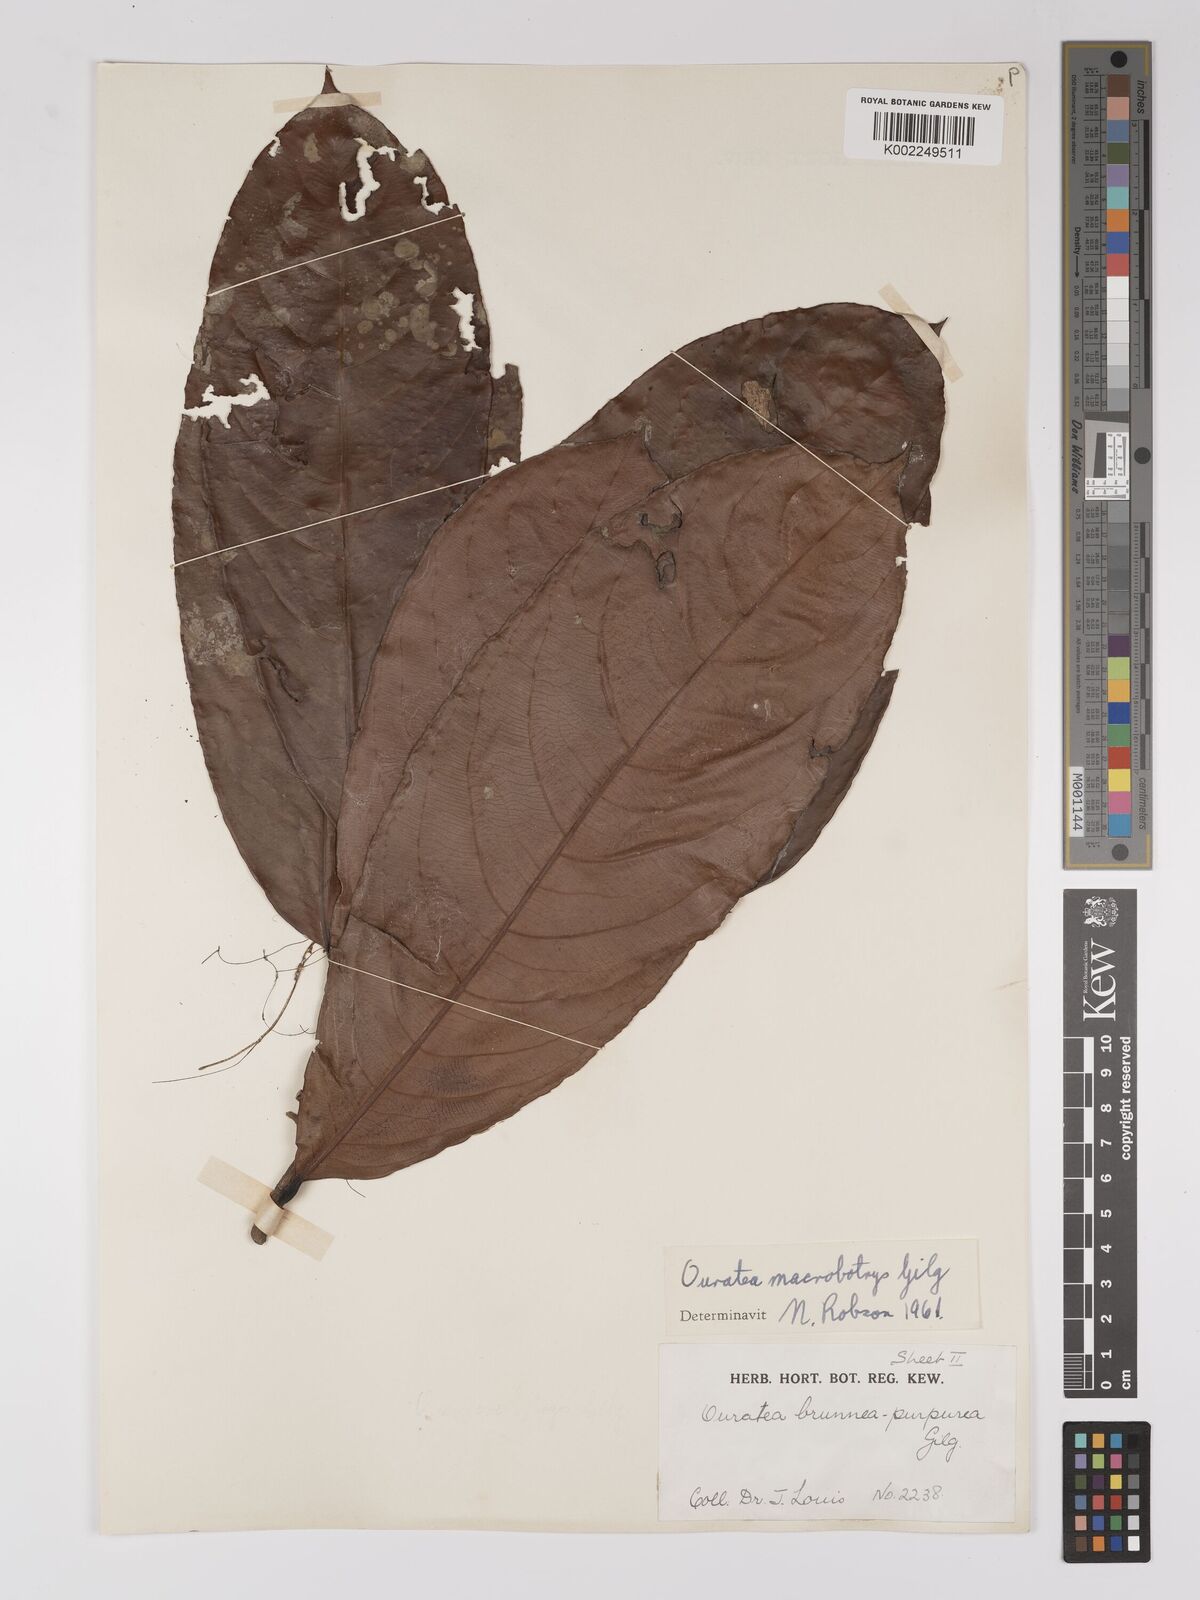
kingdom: Plantae
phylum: Tracheophyta
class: Magnoliopsida
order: Malpighiales
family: Ochnaceae
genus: Campylospermum
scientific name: Campylospermum laxiflorum
